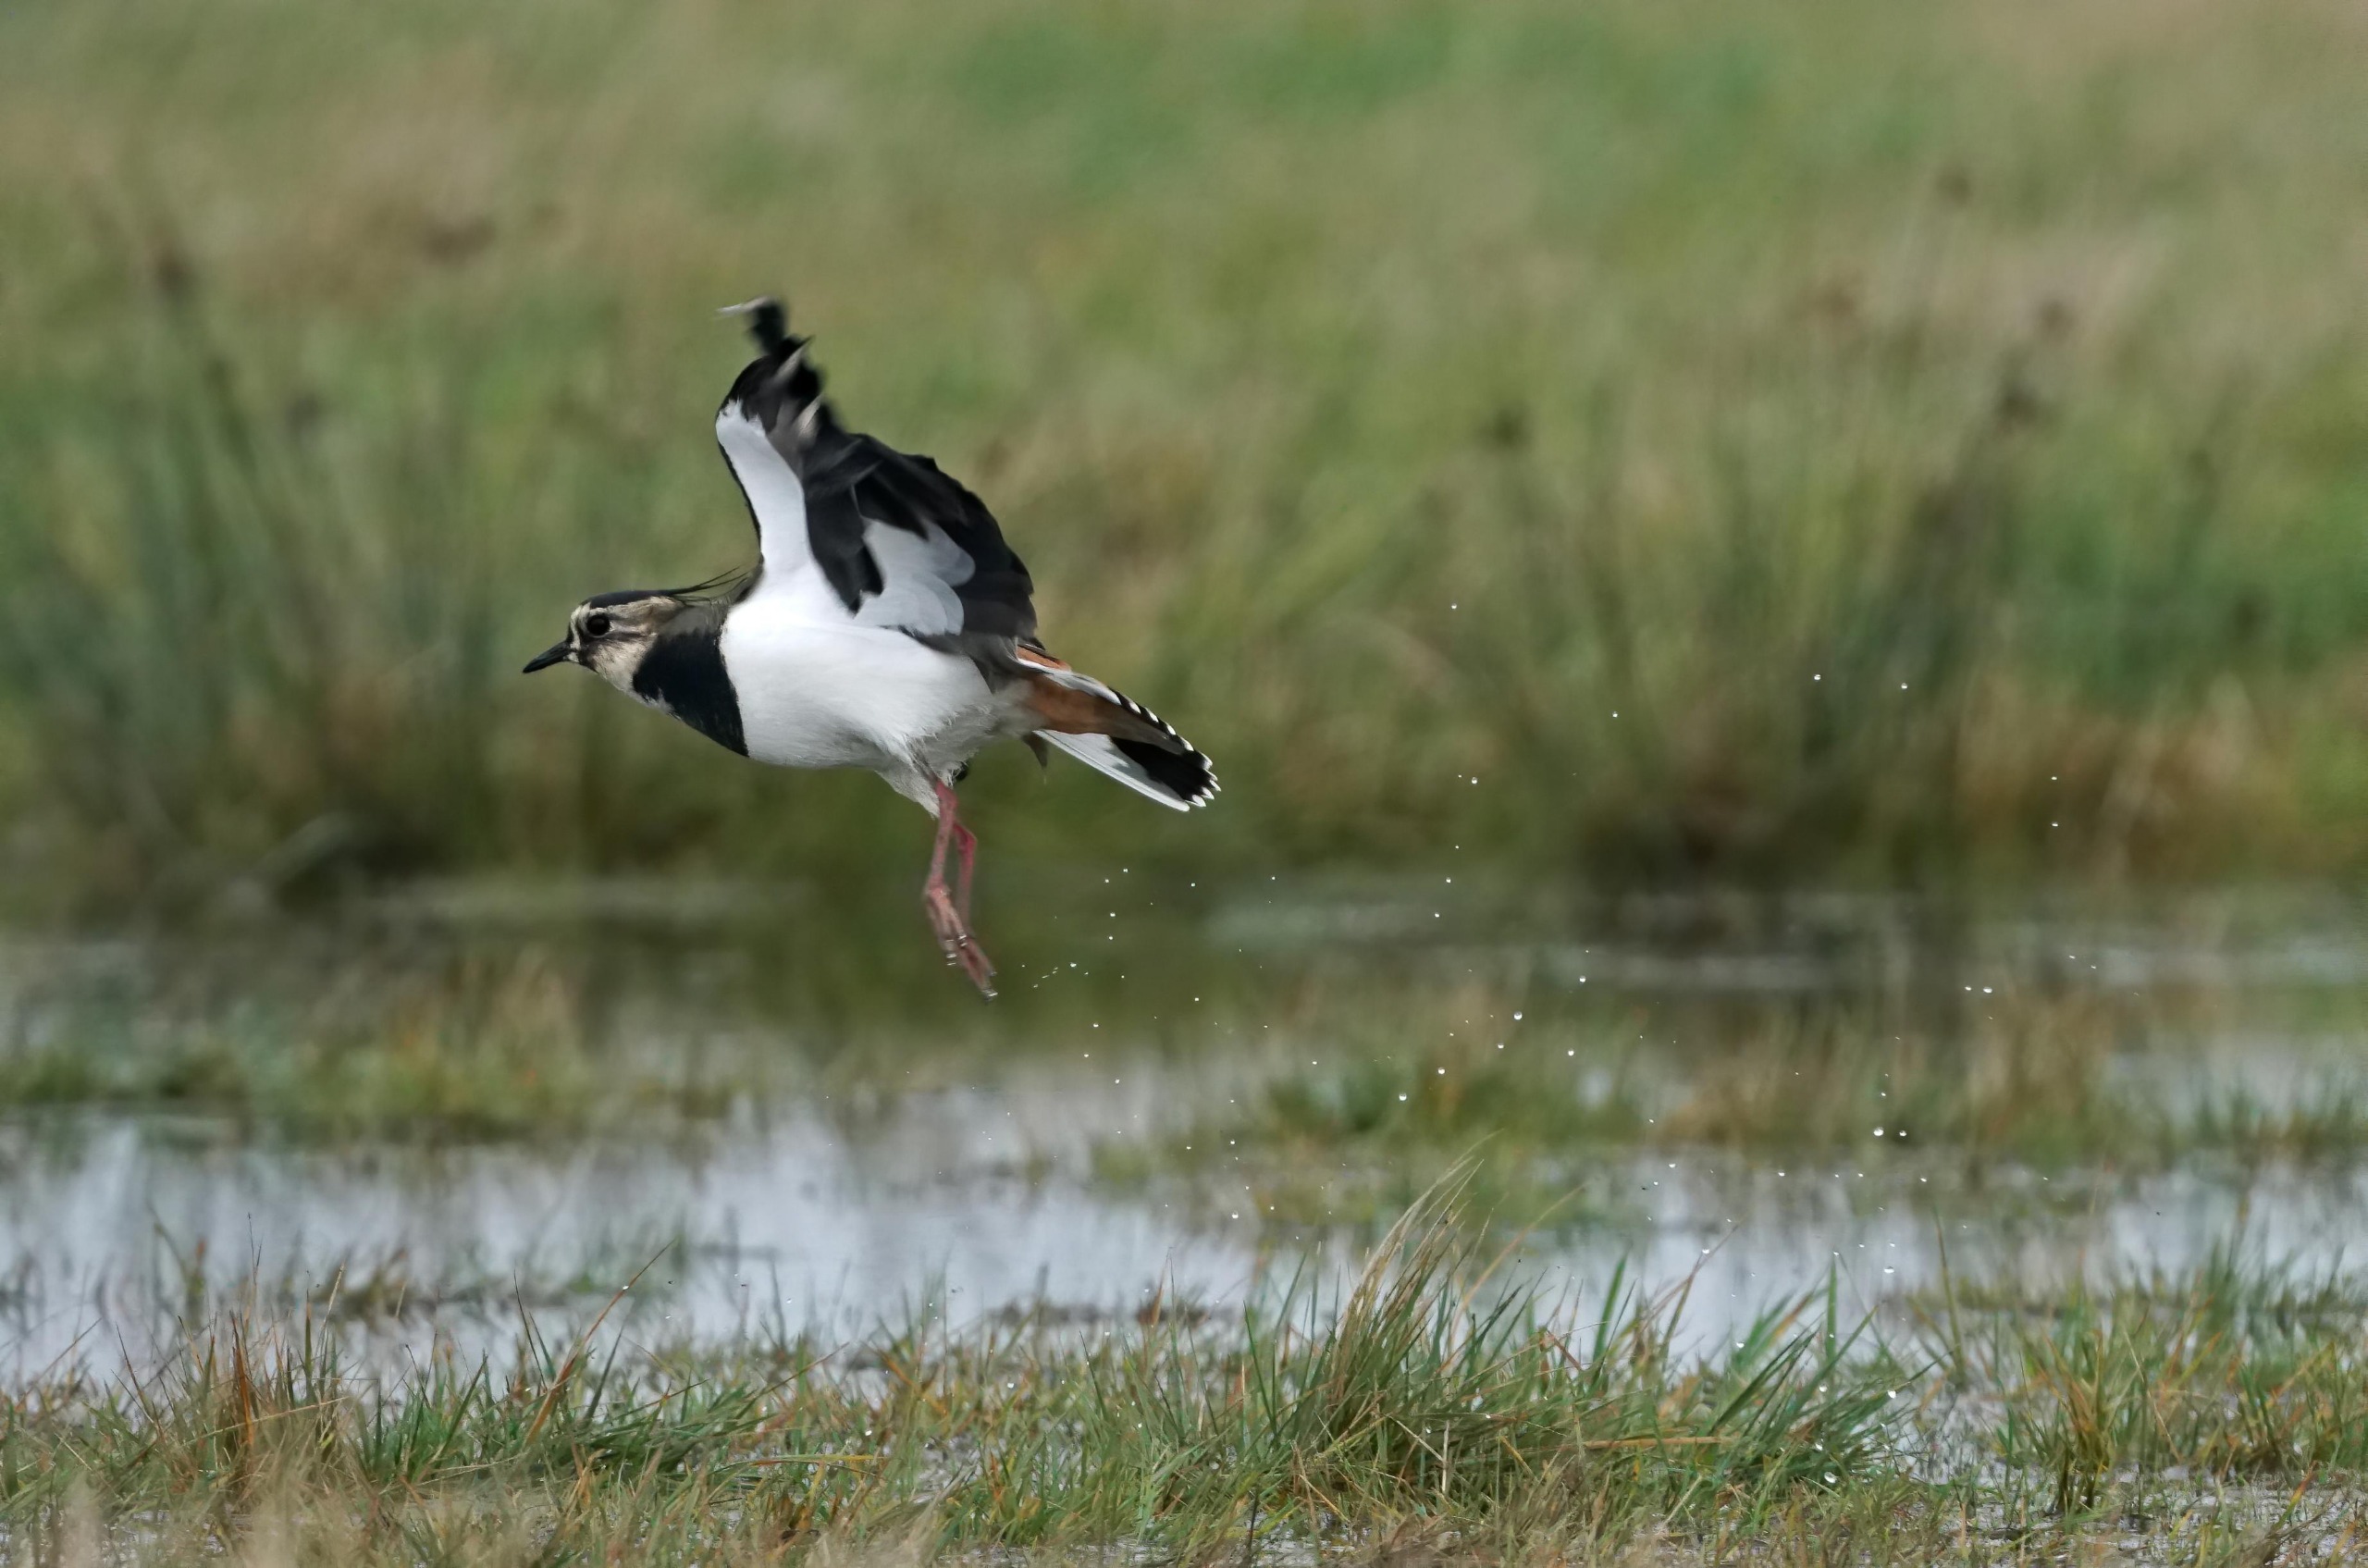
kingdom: Animalia
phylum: Chordata
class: Aves
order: Charadriiformes
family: Charadriidae
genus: Vanellus
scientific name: Vanellus vanellus
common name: Vibe
